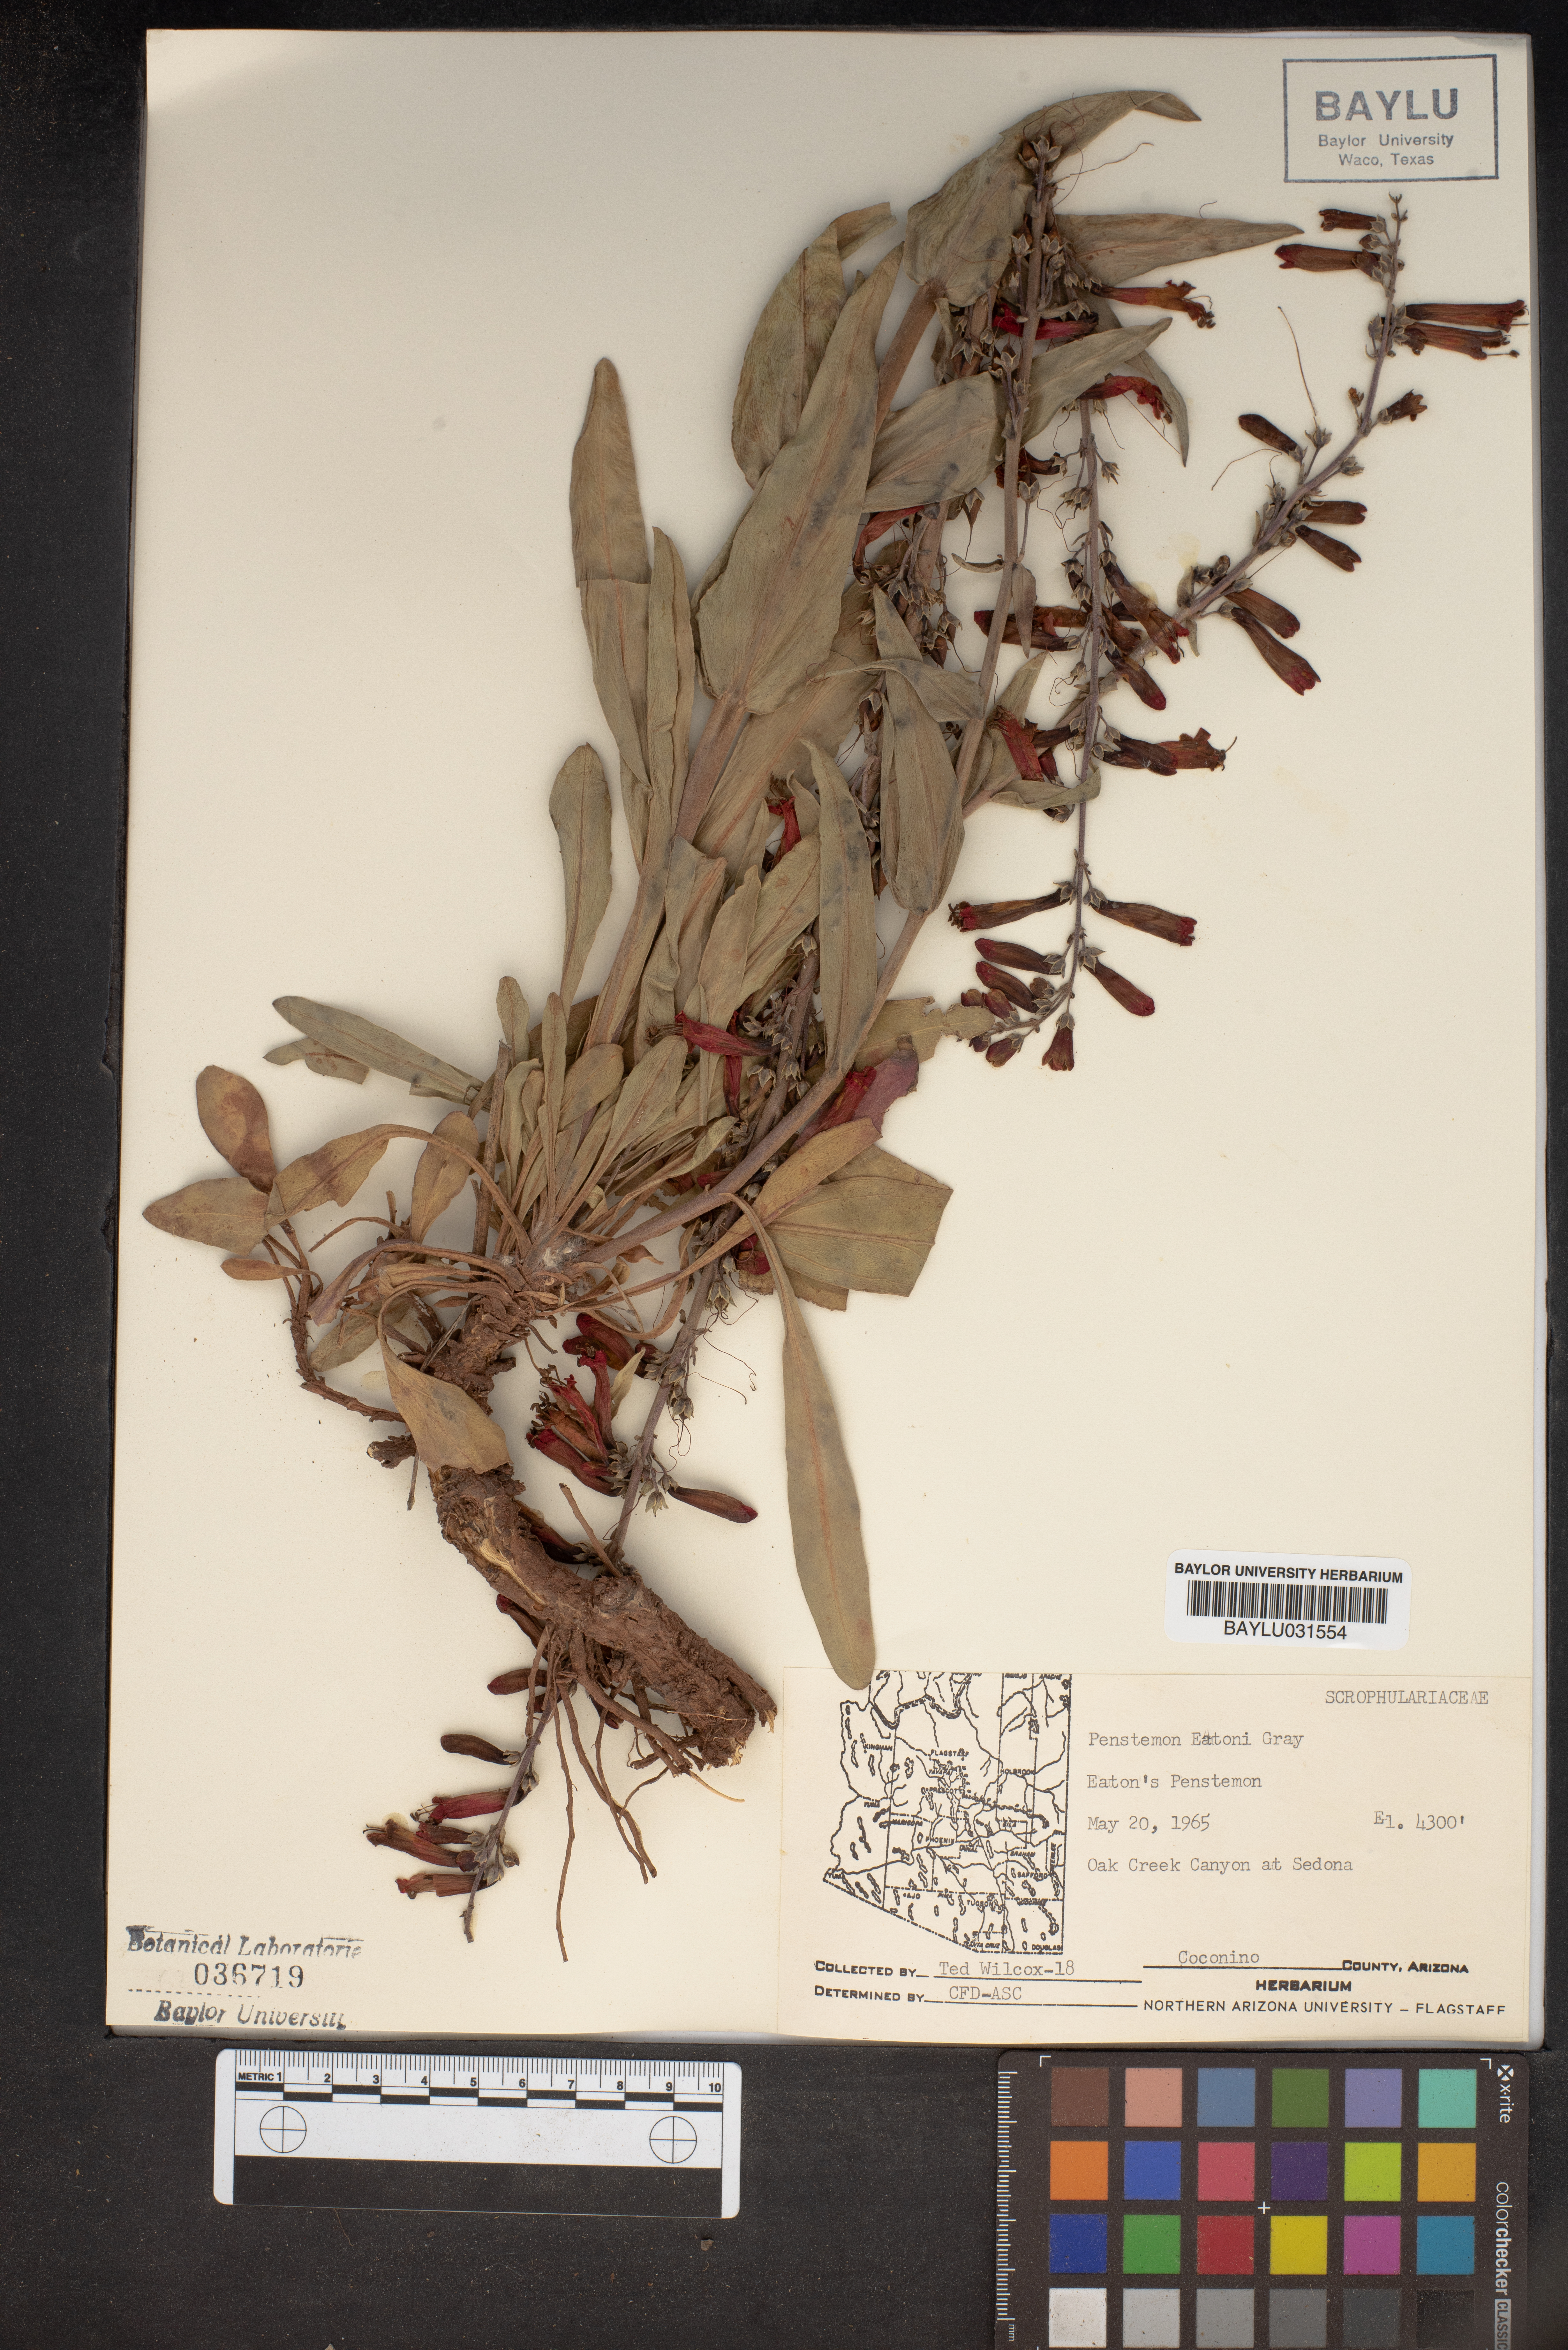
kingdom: Plantae
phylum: Tracheophyta
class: Magnoliopsida
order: Lamiales
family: Plantaginaceae
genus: Penstemon
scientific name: Penstemon eatonii
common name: Eaton's penstemon
